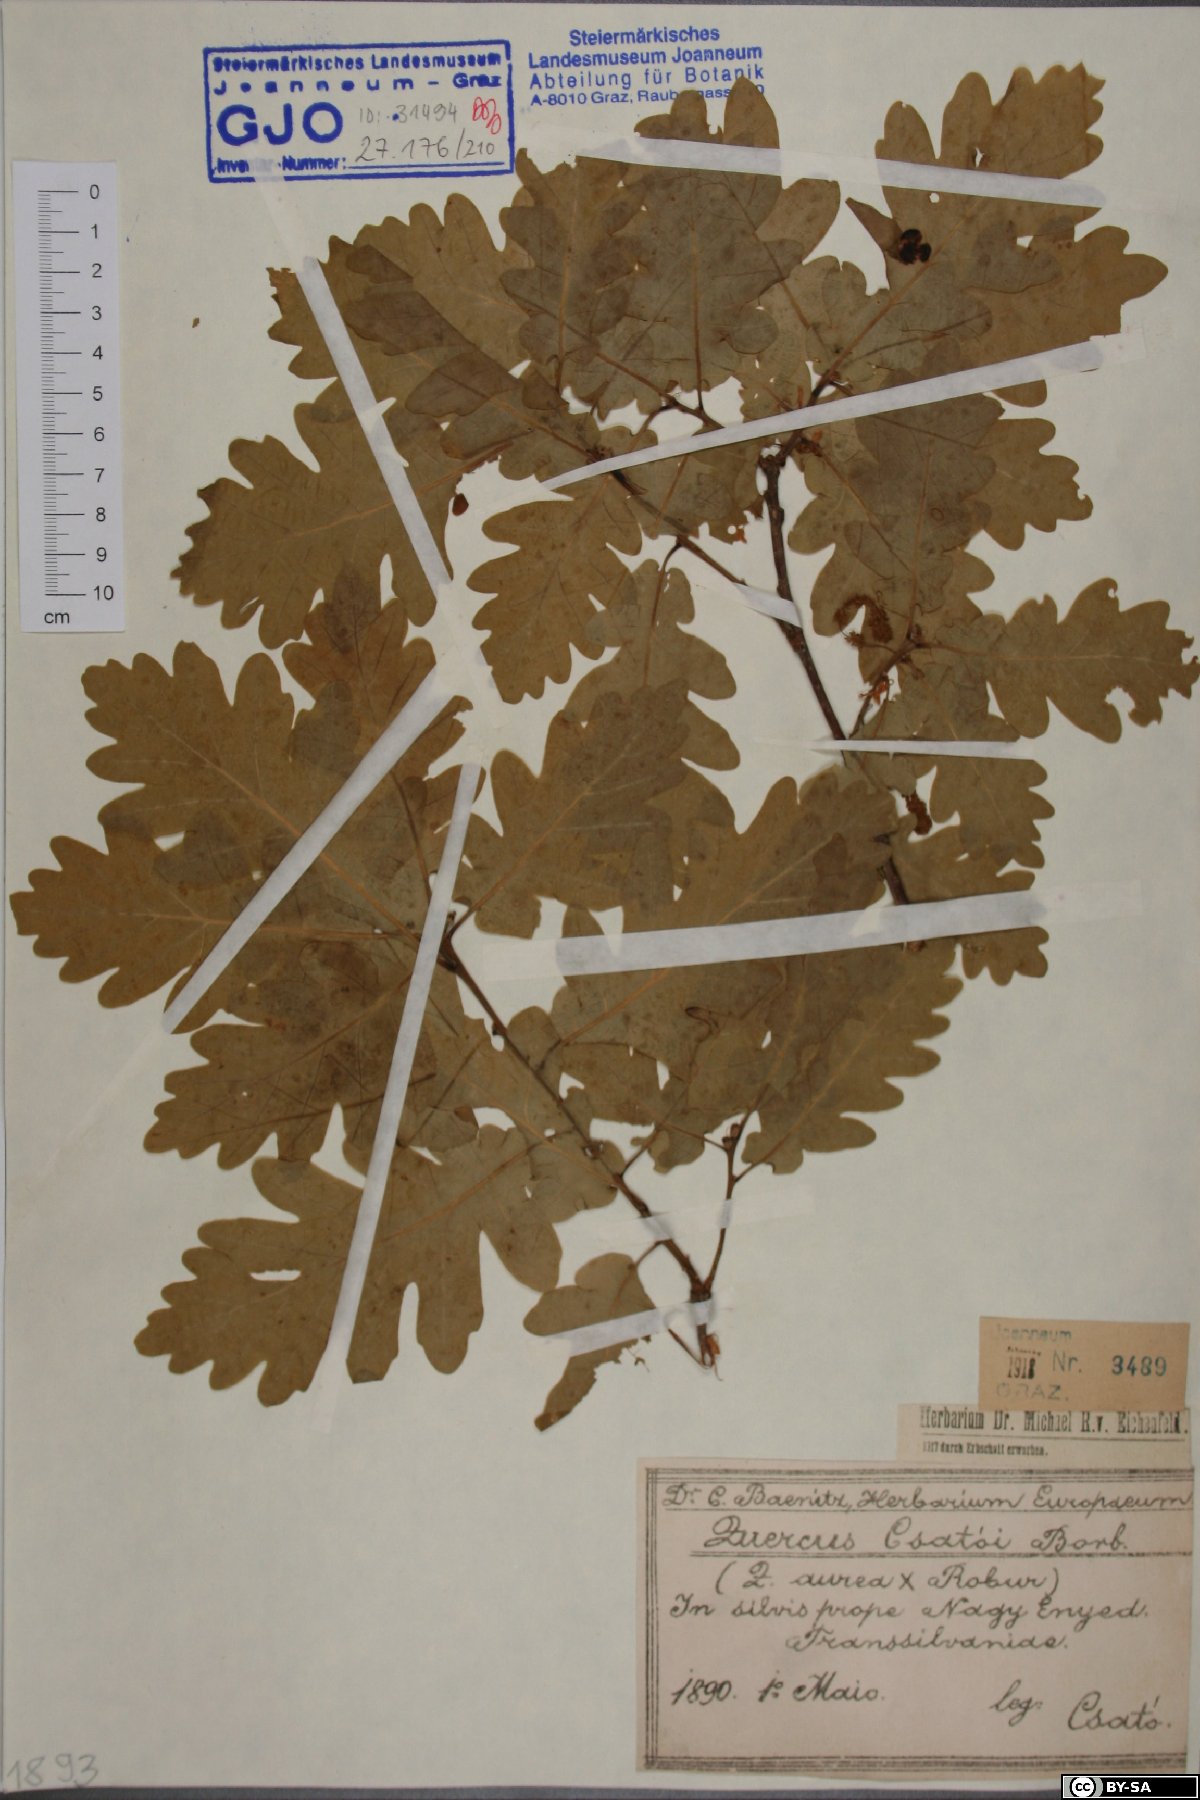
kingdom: Plantae
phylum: Tracheophyta
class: Magnoliopsida
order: Fagales
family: Fagaceae
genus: Quercus
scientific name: Quercus rosacea
